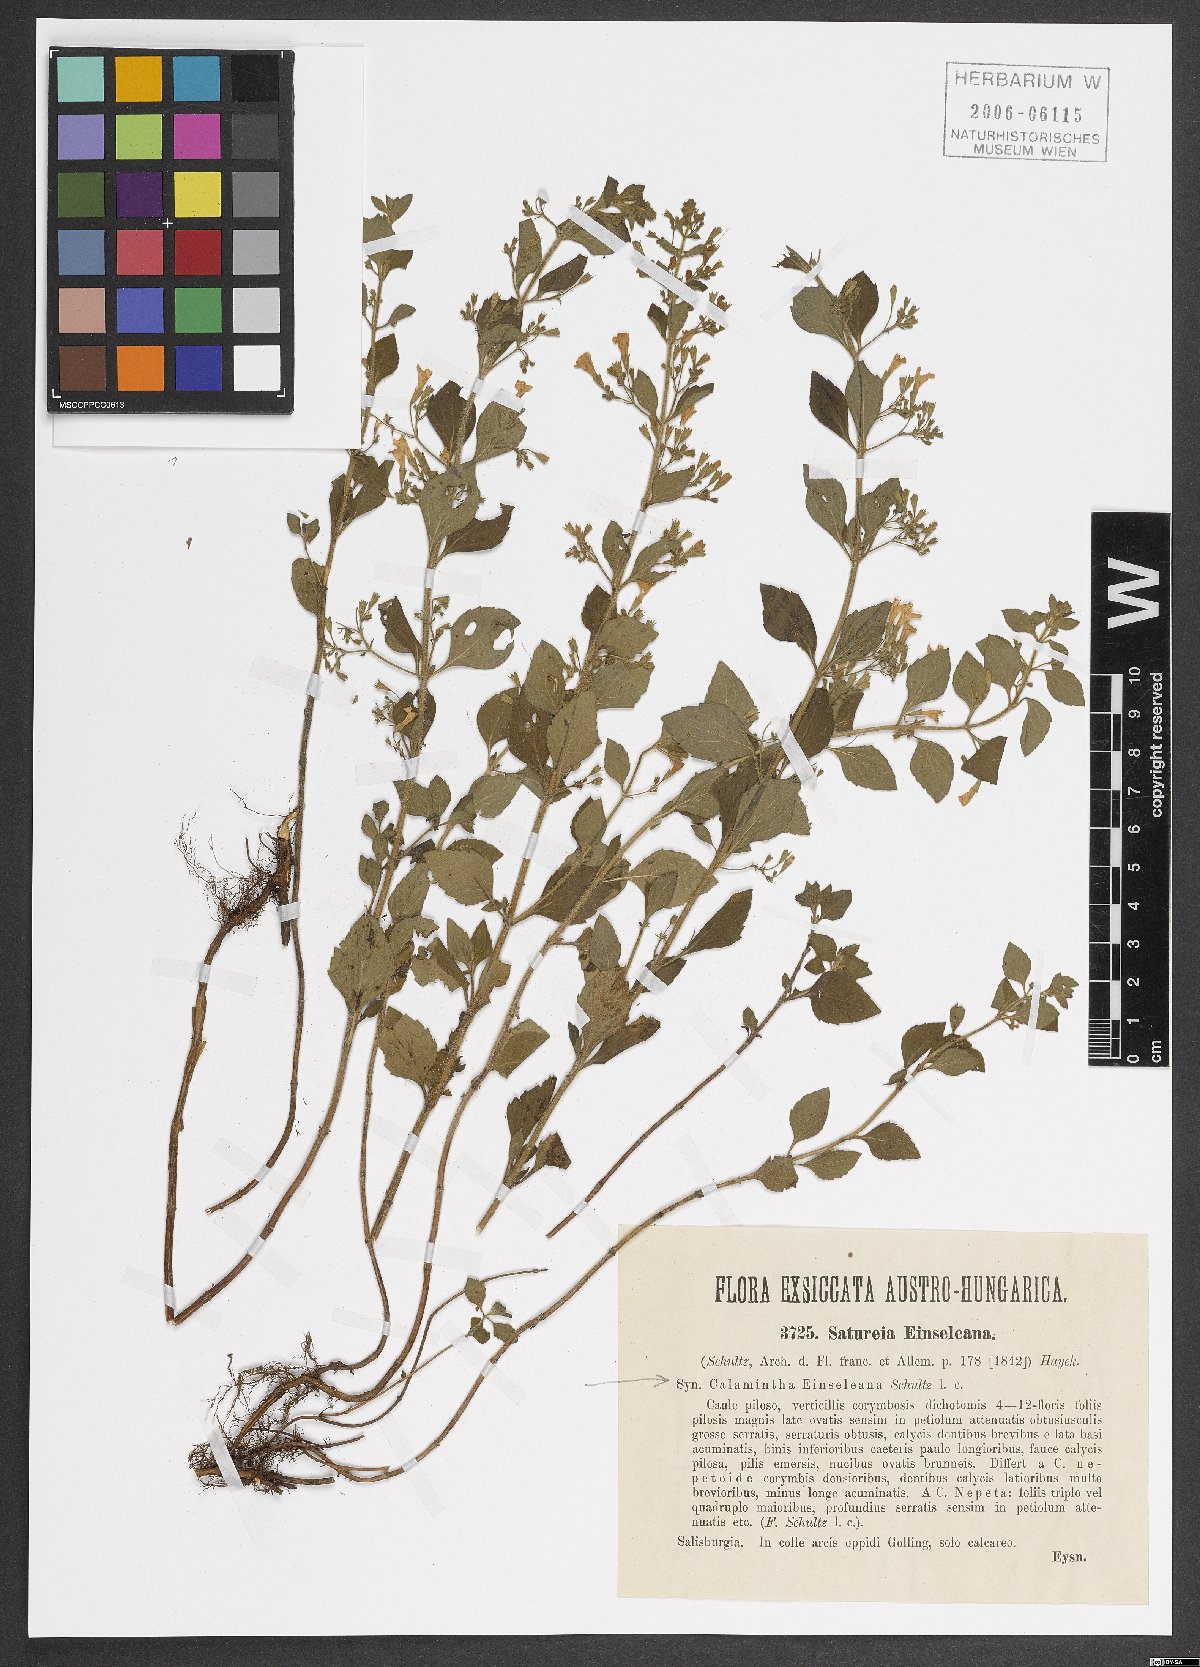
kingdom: Plantae
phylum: Tracheophyta
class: Magnoliopsida
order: Lamiales
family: Lamiaceae
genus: Clinopodium
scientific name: Clinopodium nepeta
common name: Lesser calamint
